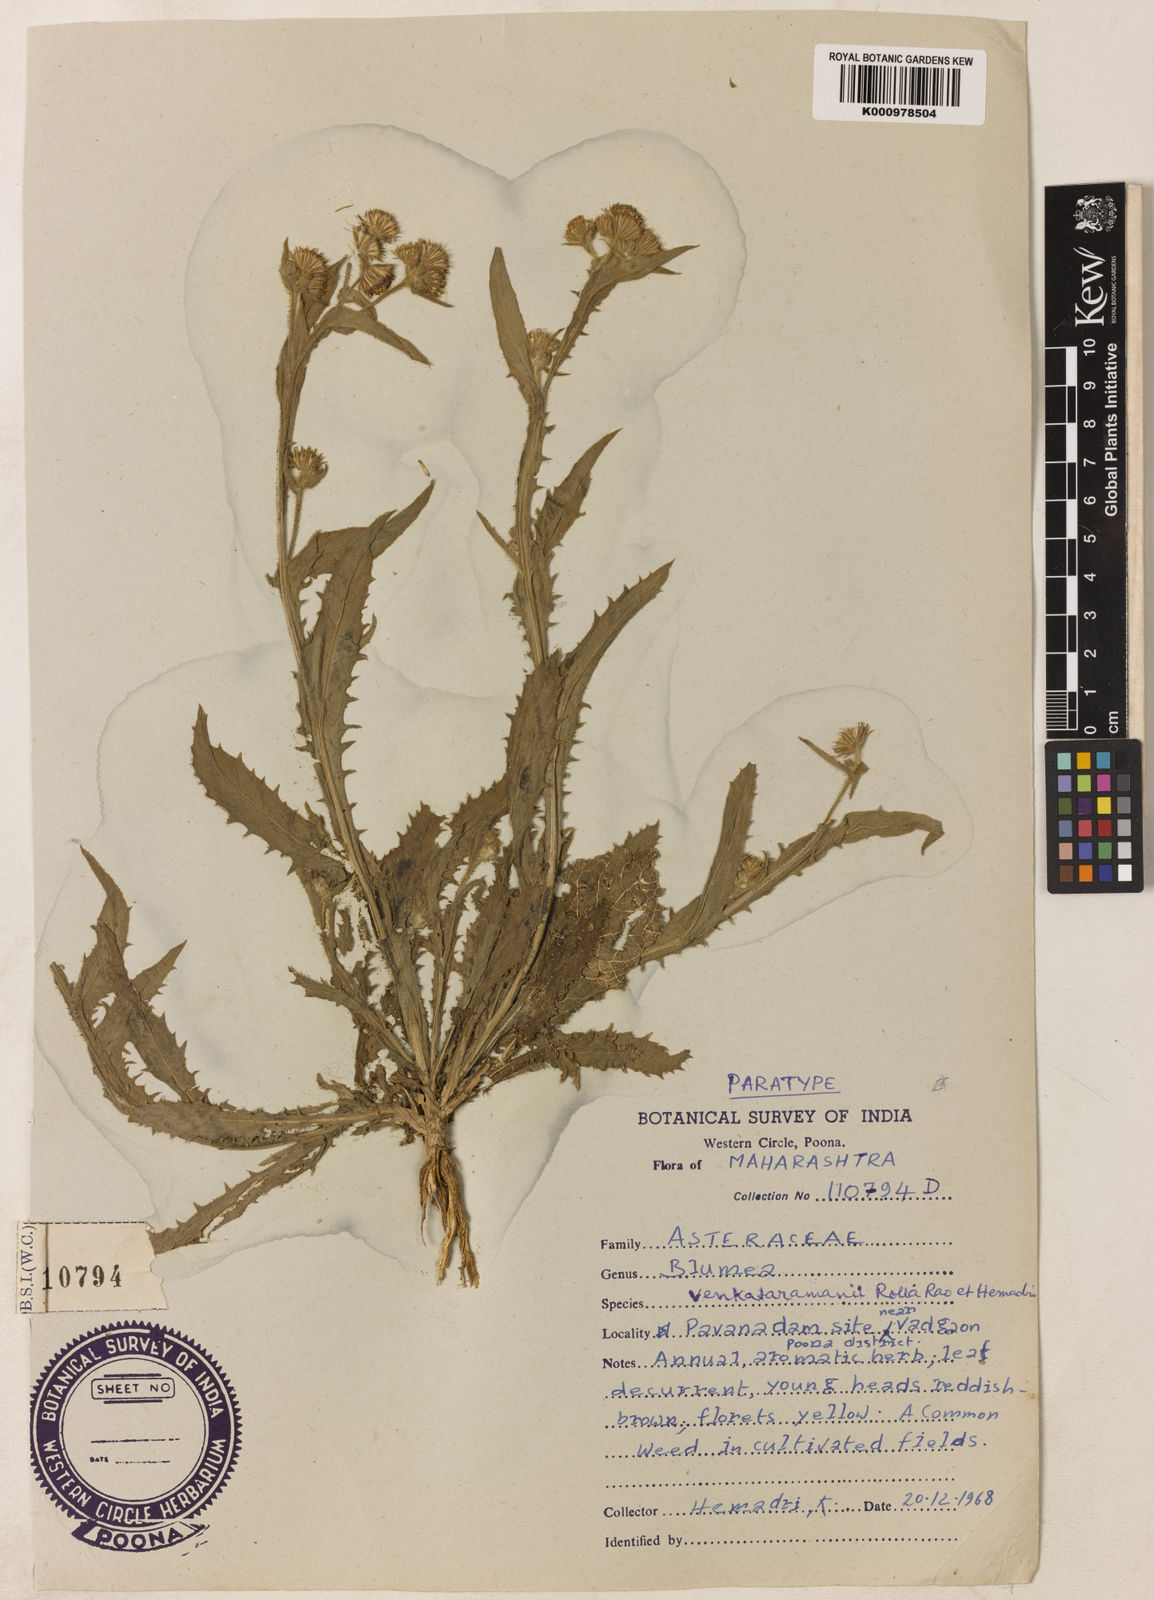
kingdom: Plantae
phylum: Tracheophyta
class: Magnoliopsida
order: Asterales
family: Asteraceae
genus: Blumea
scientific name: Blumea venkataramanii
